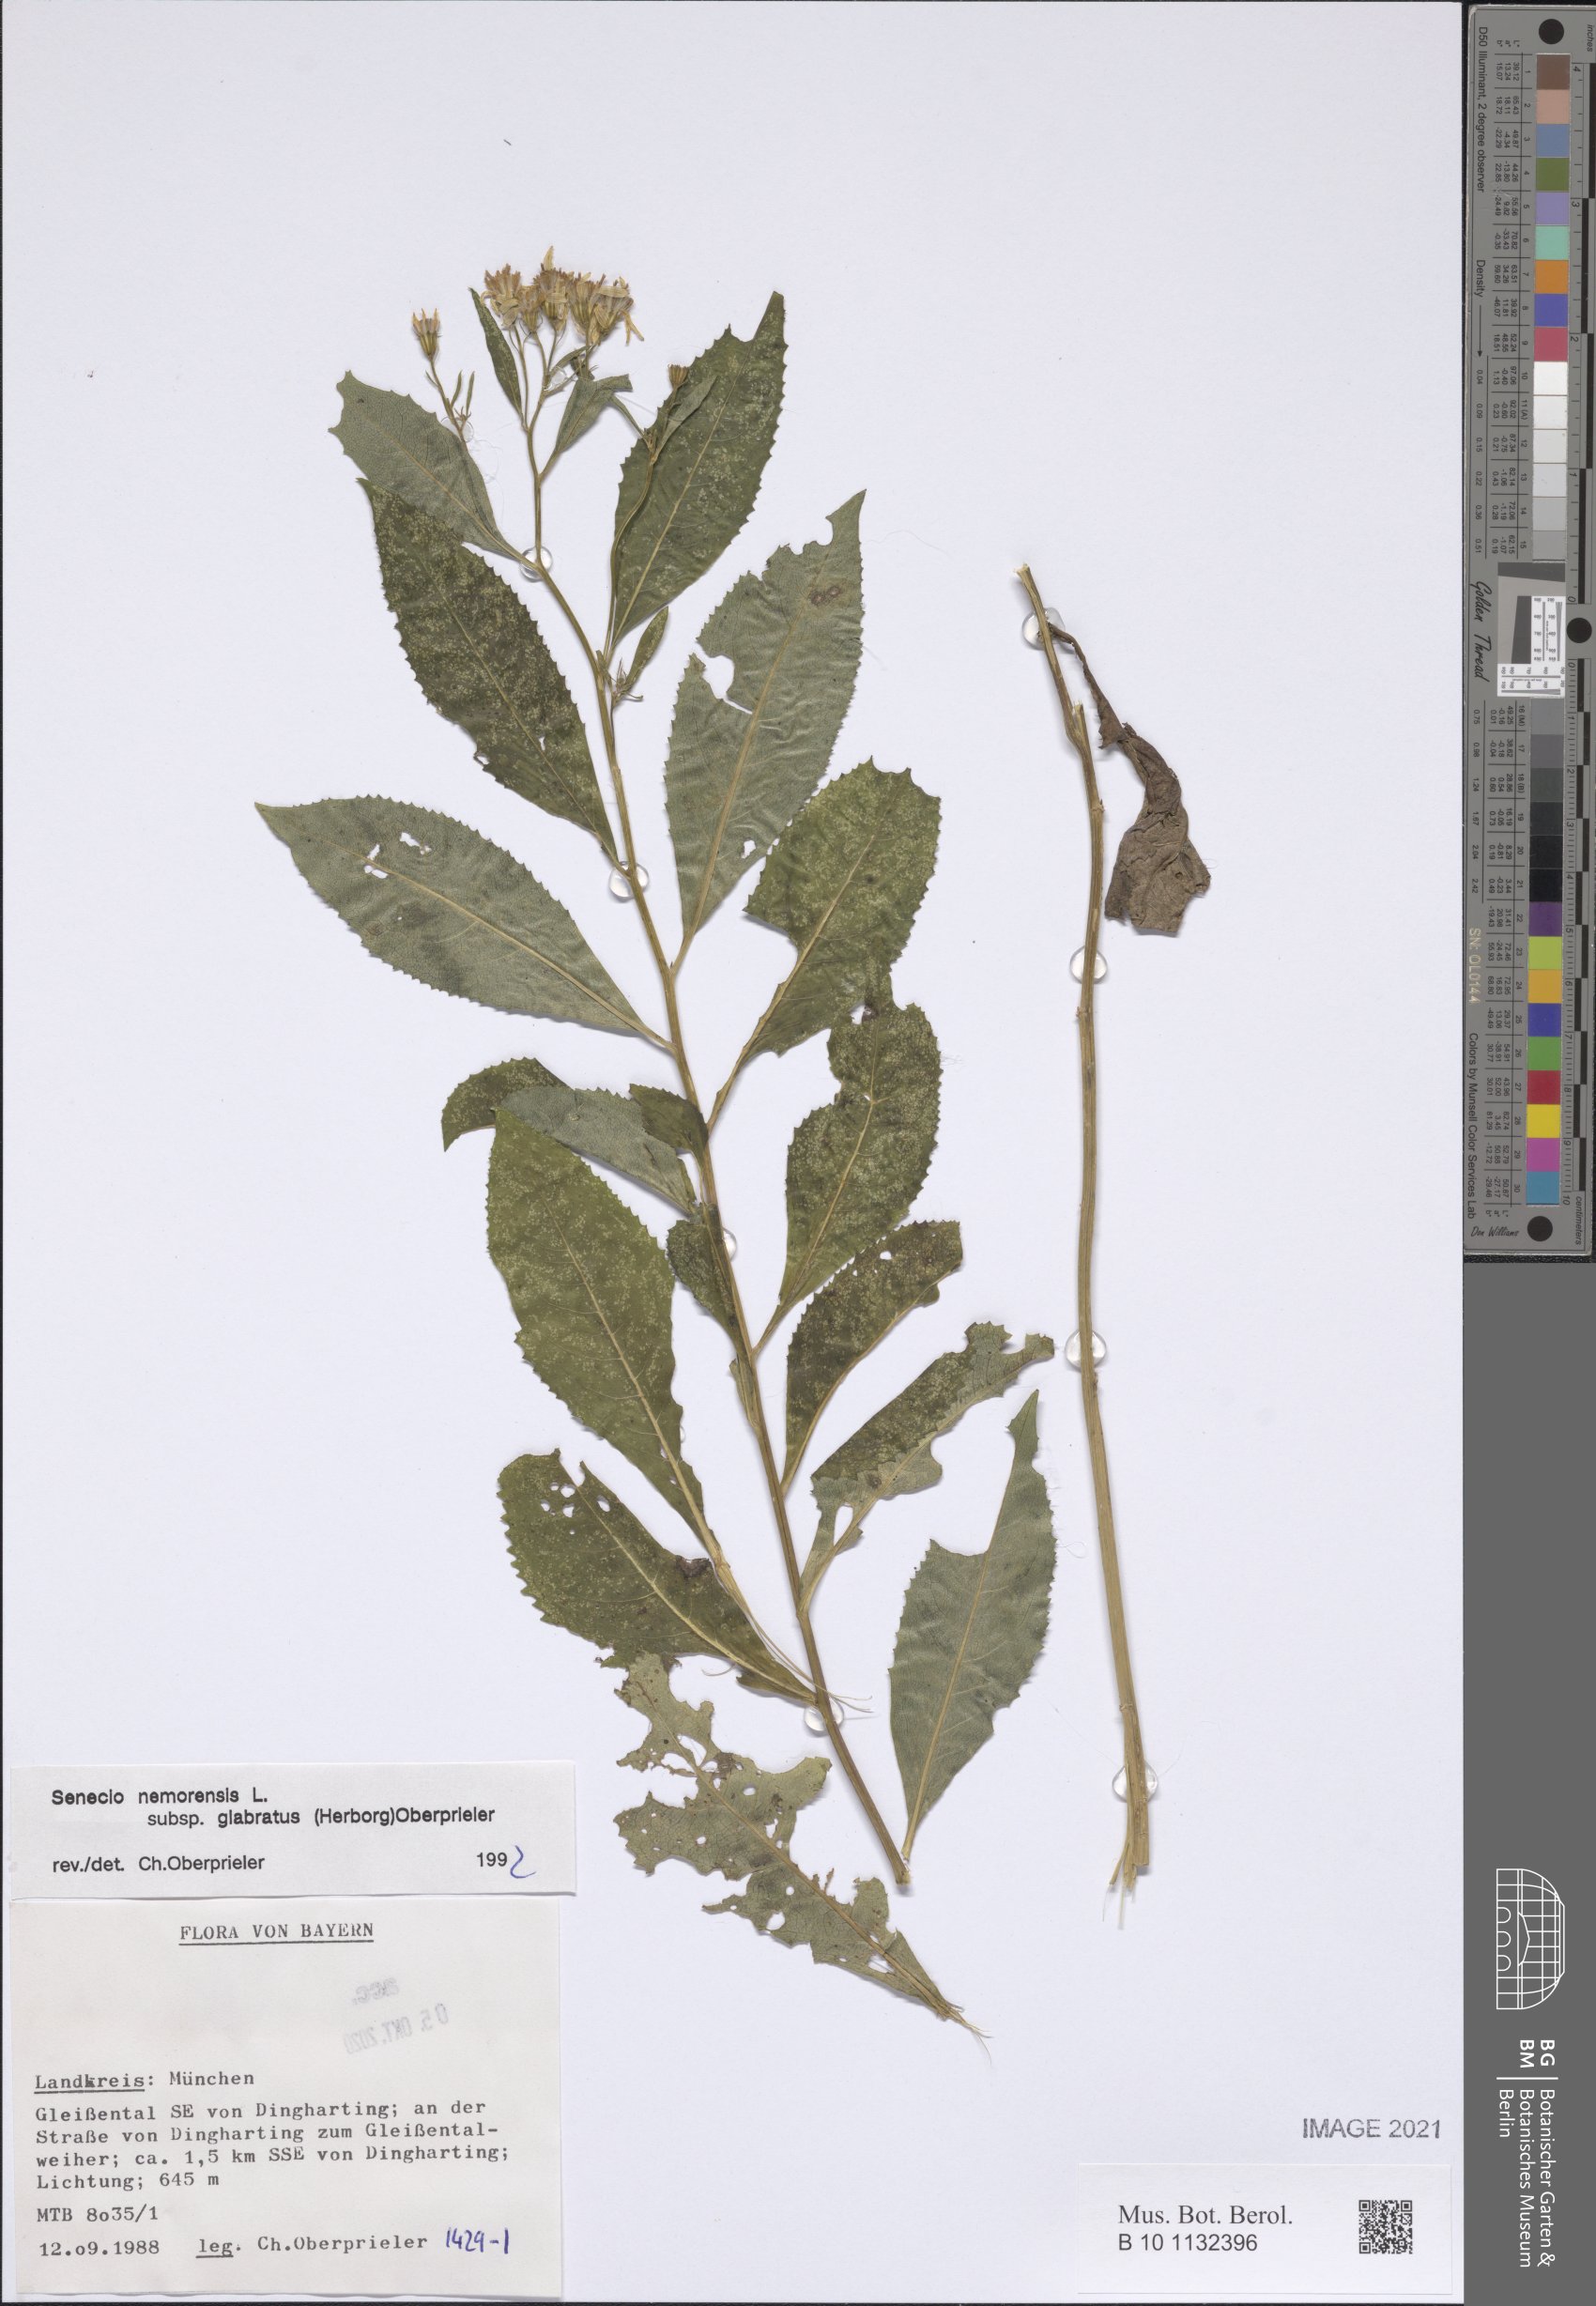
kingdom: Plantae
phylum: Tracheophyta
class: Magnoliopsida
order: Asterales
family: Asteraceae
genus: Senecio
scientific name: Senecio germanicus
